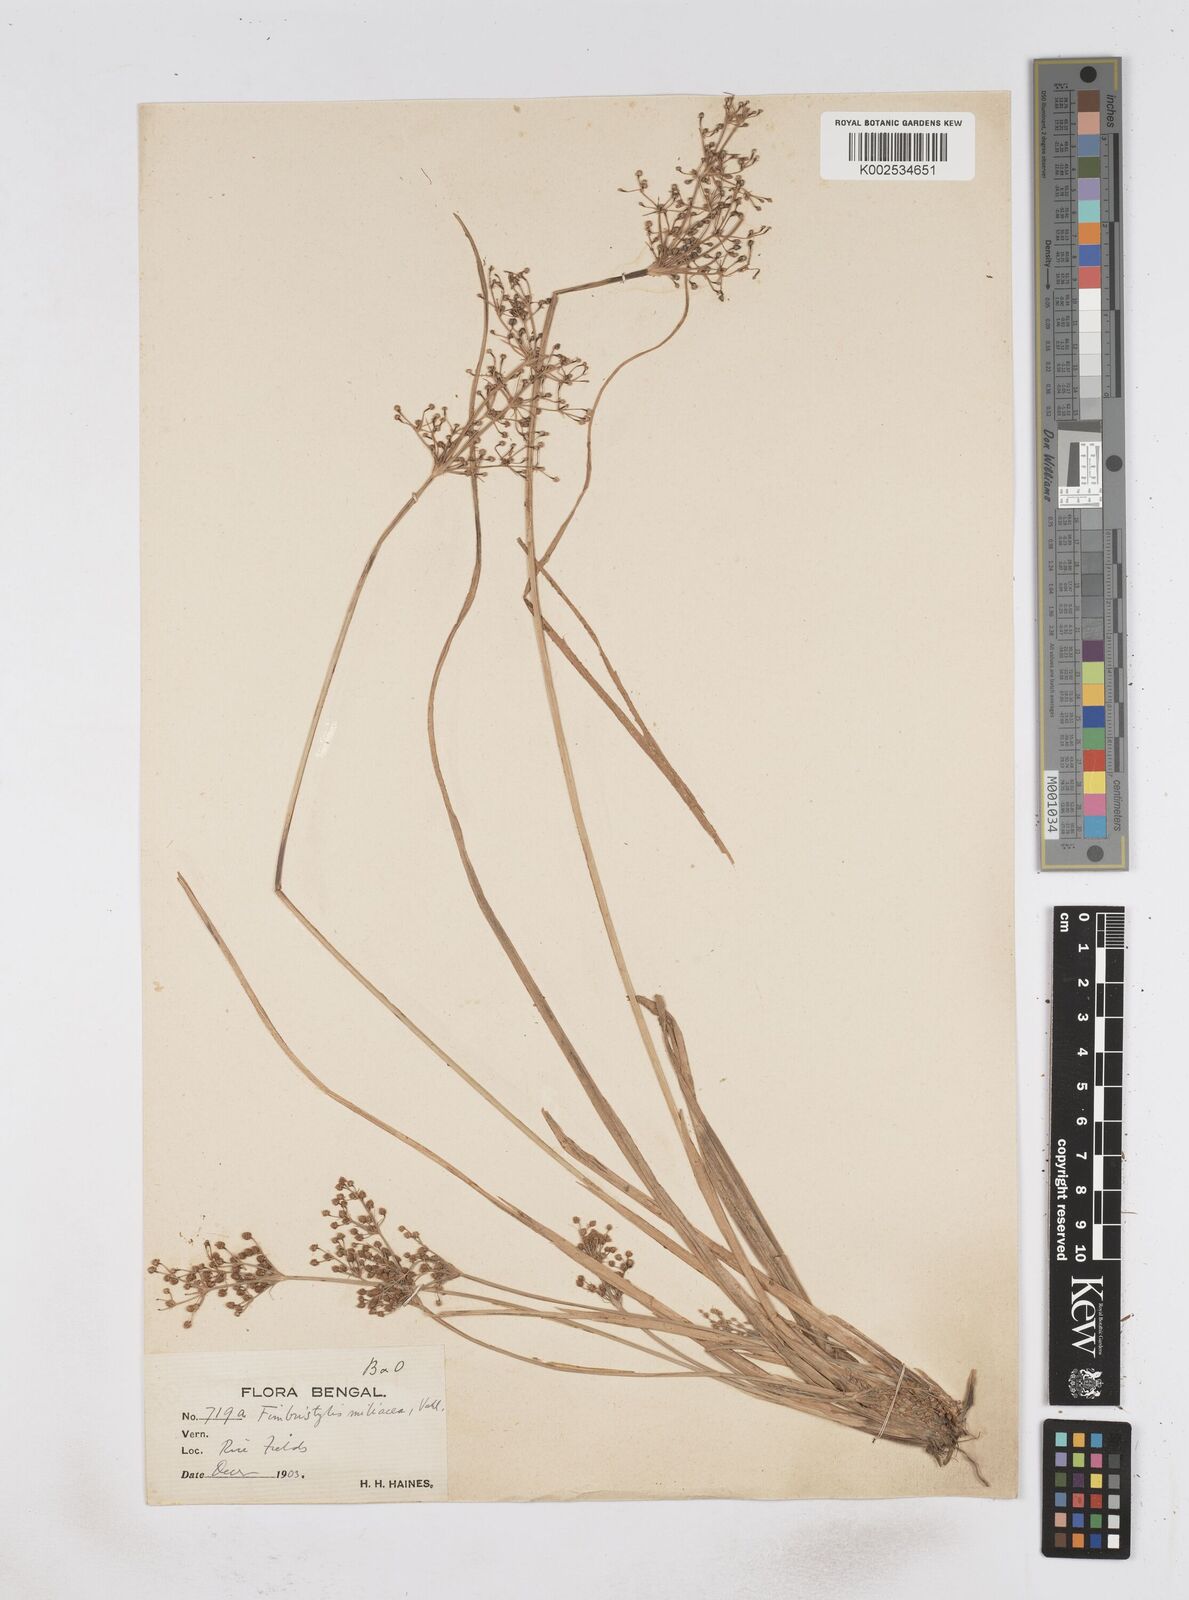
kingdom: Plantae
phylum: Tracheophyta
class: Liliopsida
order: Poales
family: Cyperaceae
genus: Fimbristylis
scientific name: Fimbristylis littoralis
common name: Fimbry
